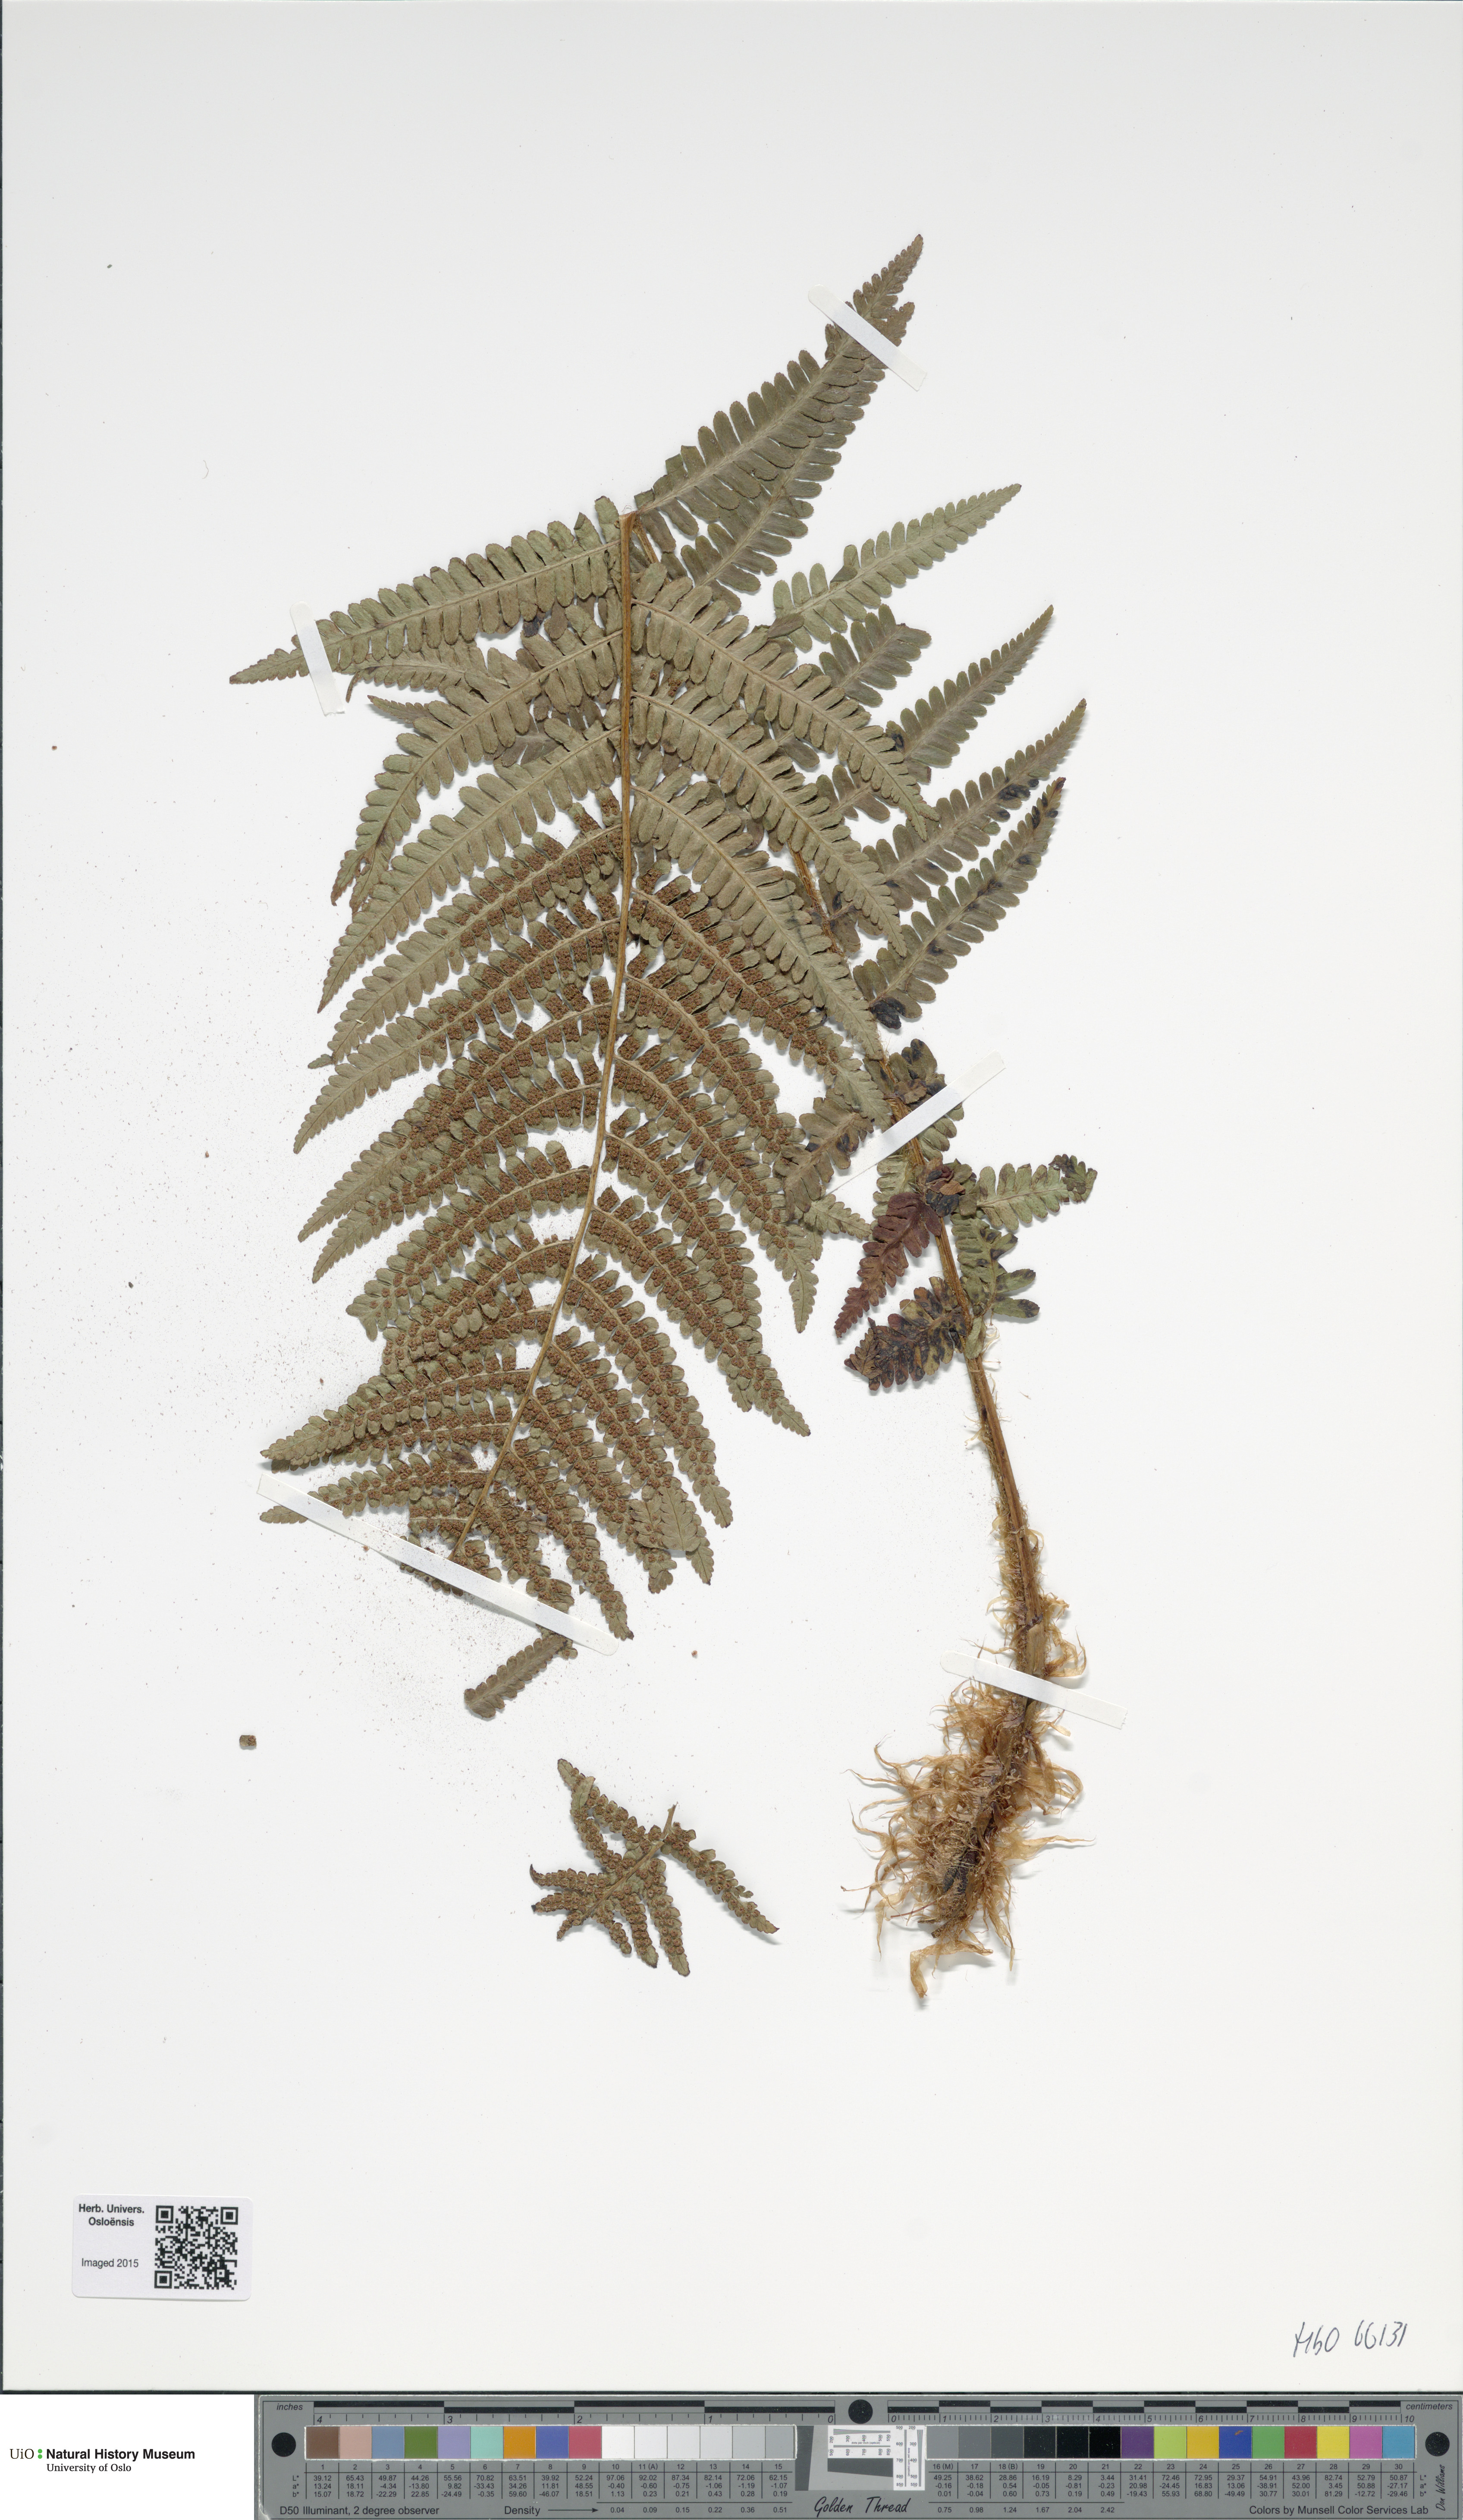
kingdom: Plantae
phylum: Tracheophyta
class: Polypodiopsida
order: Polypodiales
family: Dryopteridaceae
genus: Dryopteris
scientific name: Dryopteris wallichiana
